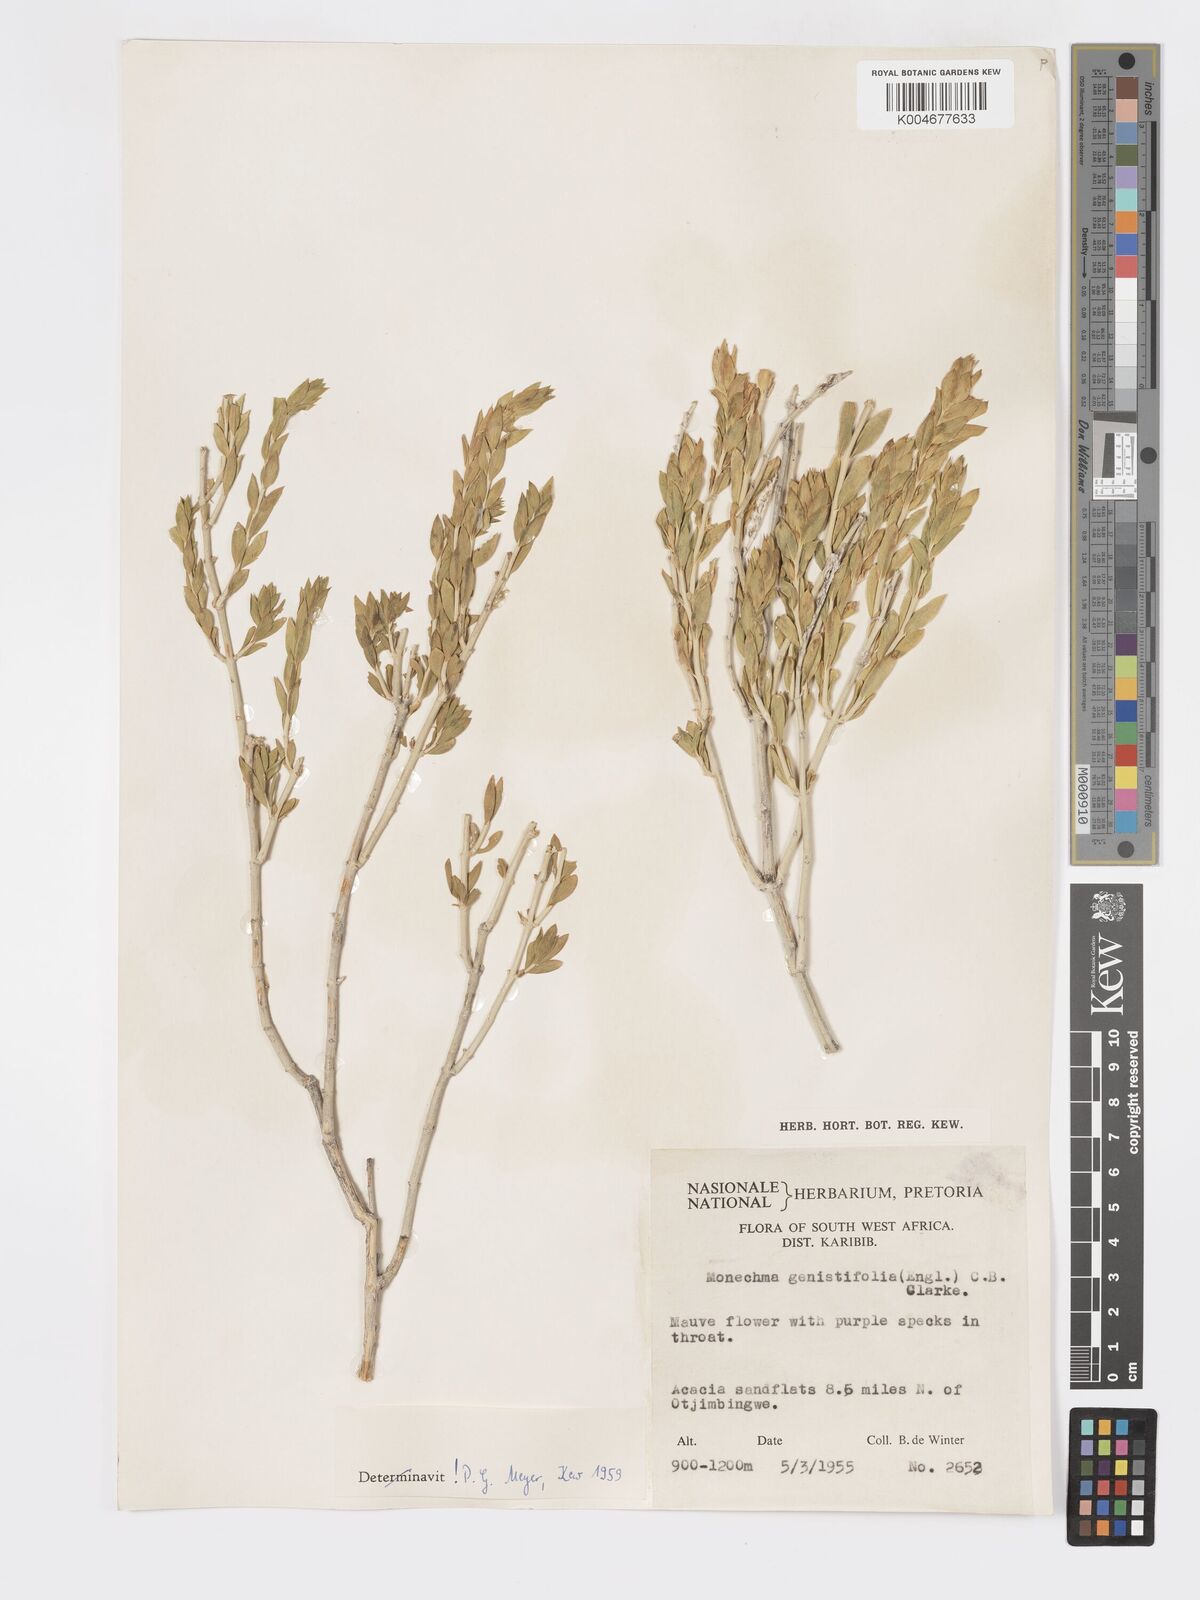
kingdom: Plantae
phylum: Tracheophyta
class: Magnoliopsida
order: Lamiales
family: Acanthaceae
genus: Pogonospermum
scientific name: Pogonospermum
